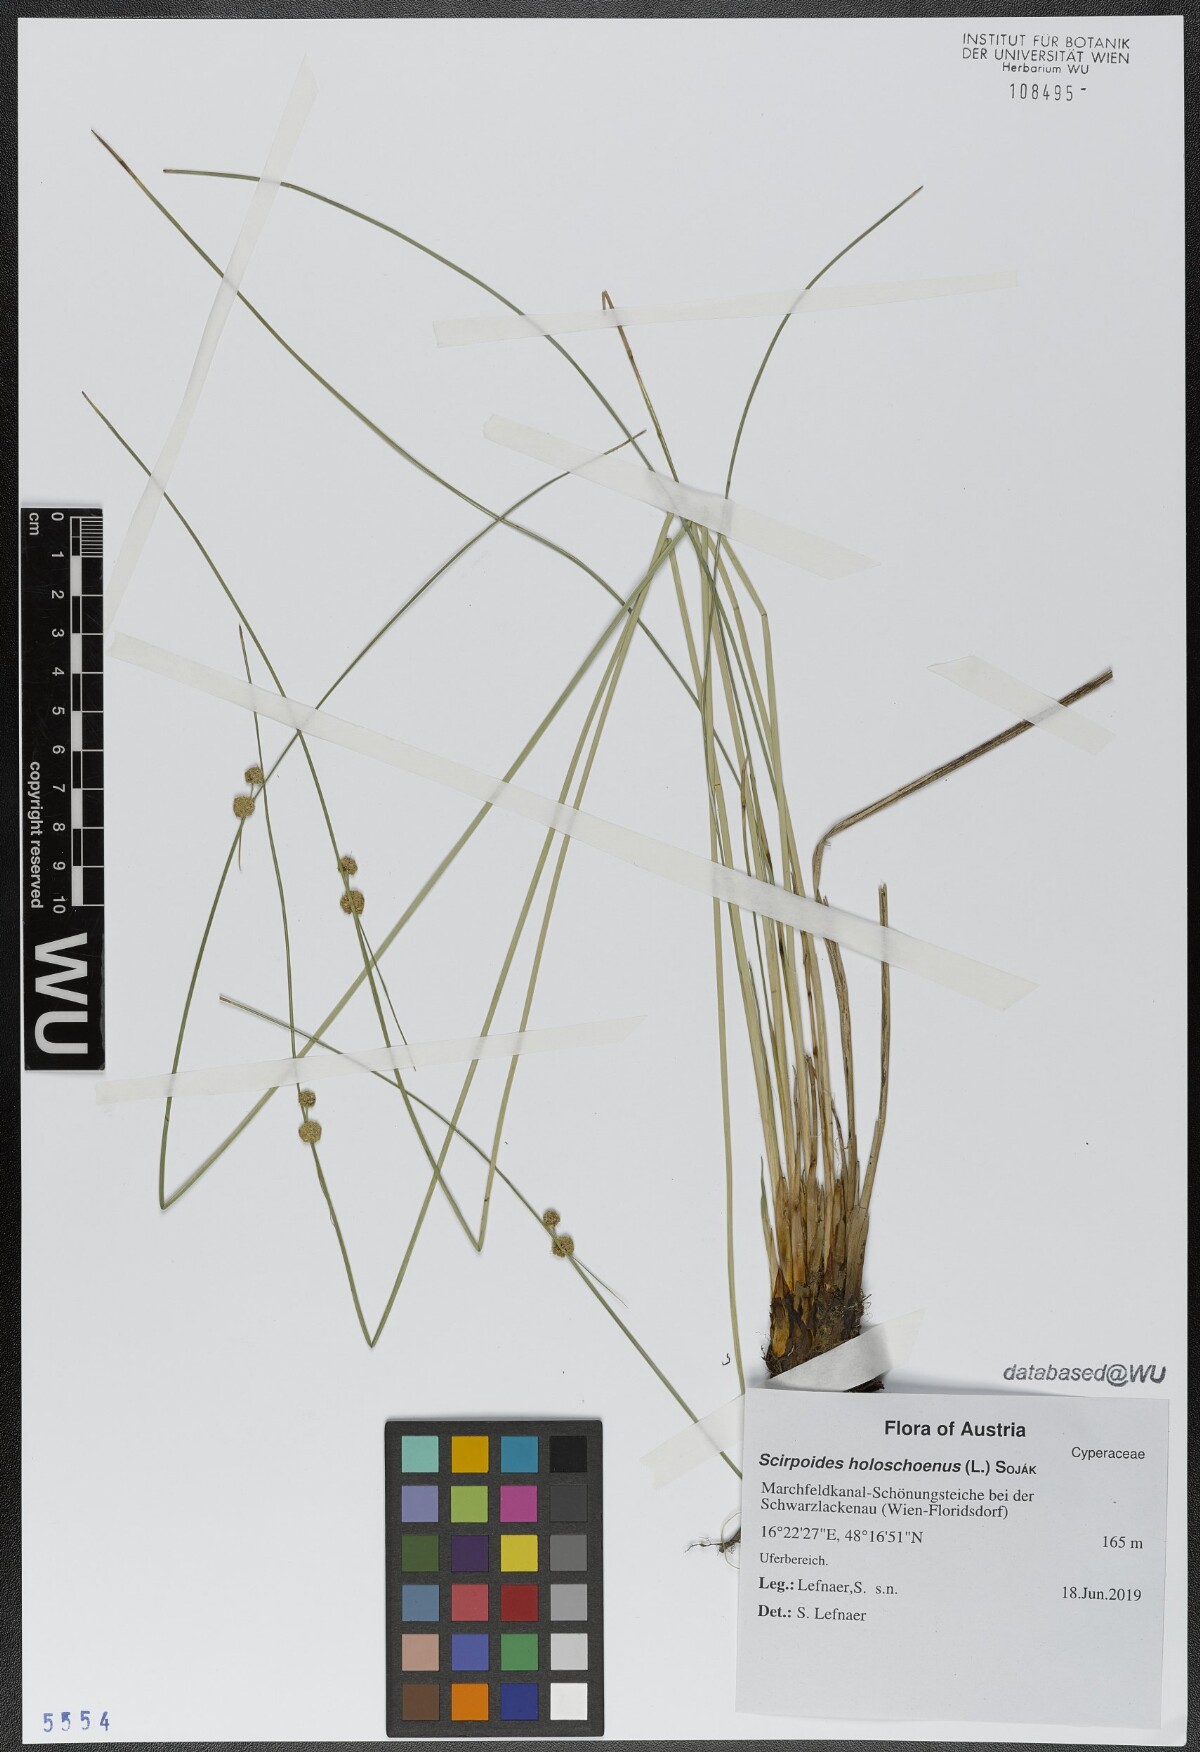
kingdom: Plantae
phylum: Tracheophyta
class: Liliopsida
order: Poales
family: Cyperaceae
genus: Scirpoides
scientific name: Scirpoides holoschoenus
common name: Round-headed club-rush
